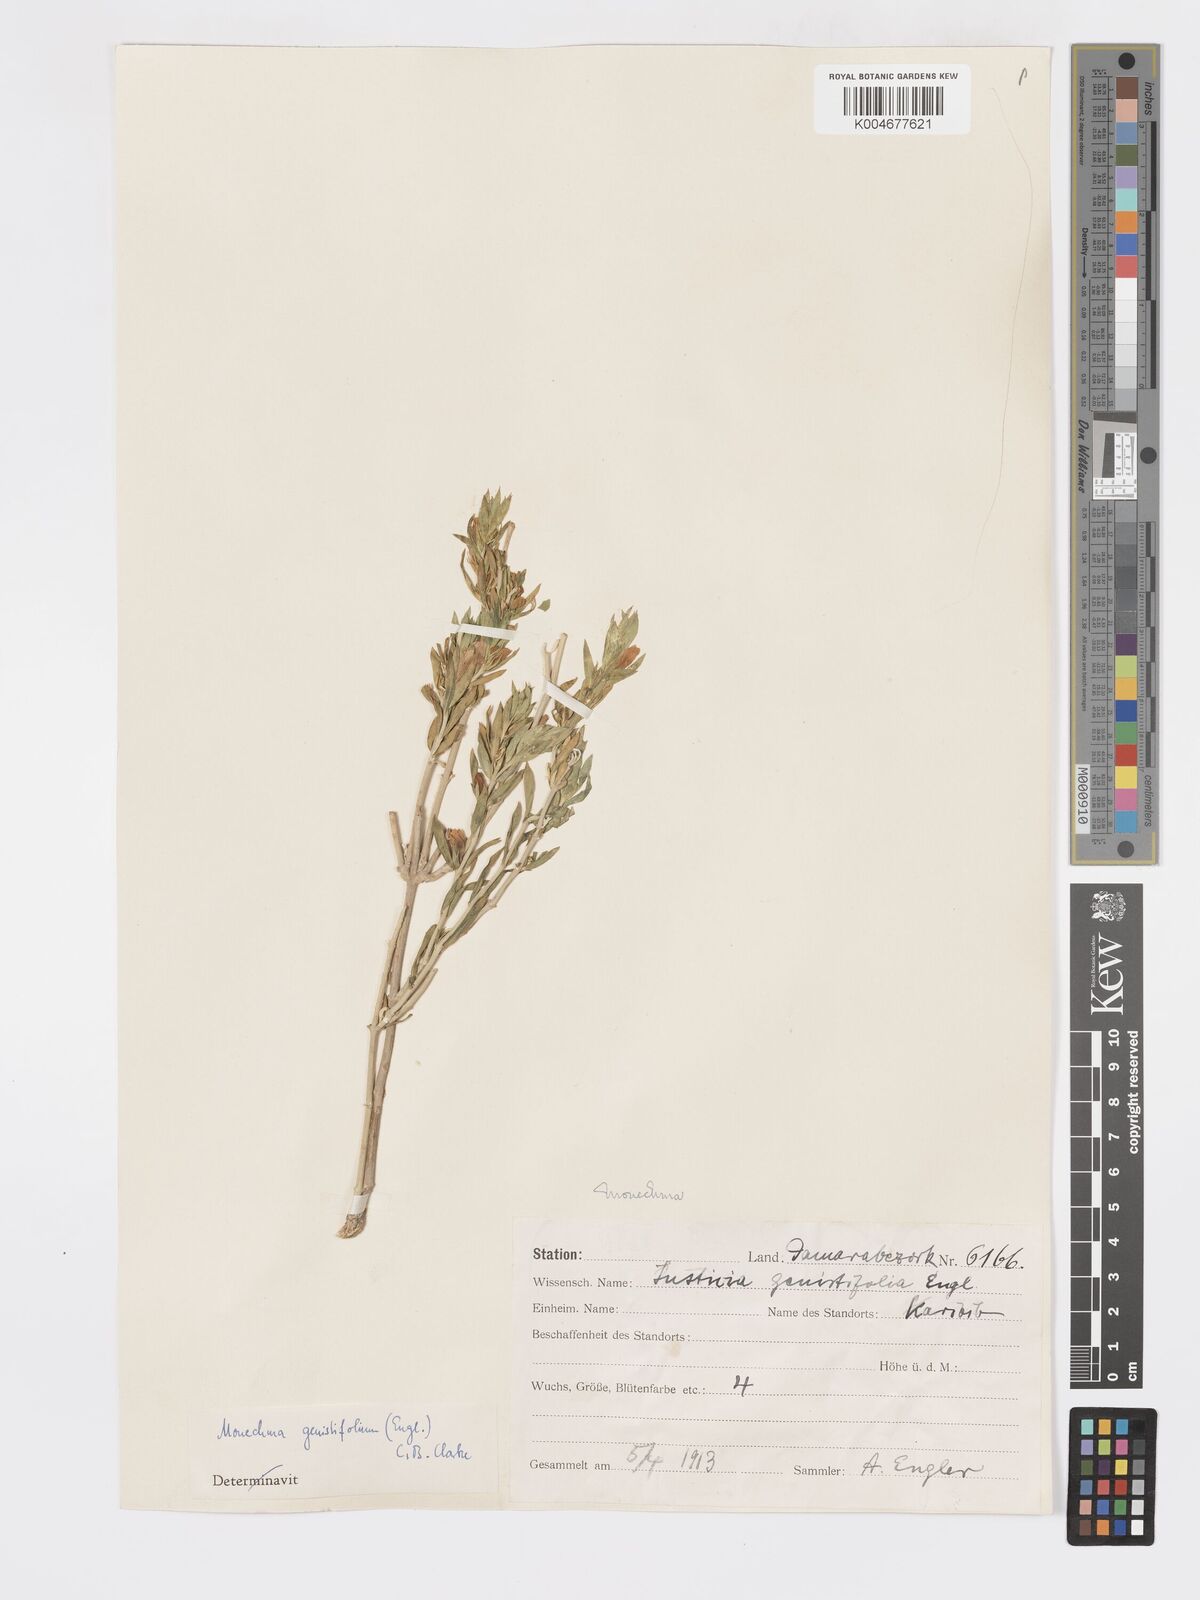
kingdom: Plantae
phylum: Tracheophyta
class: Magnoliopsida
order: Lamiales
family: Acanthaceae
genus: Pogonospermum
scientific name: Pogonospermum
